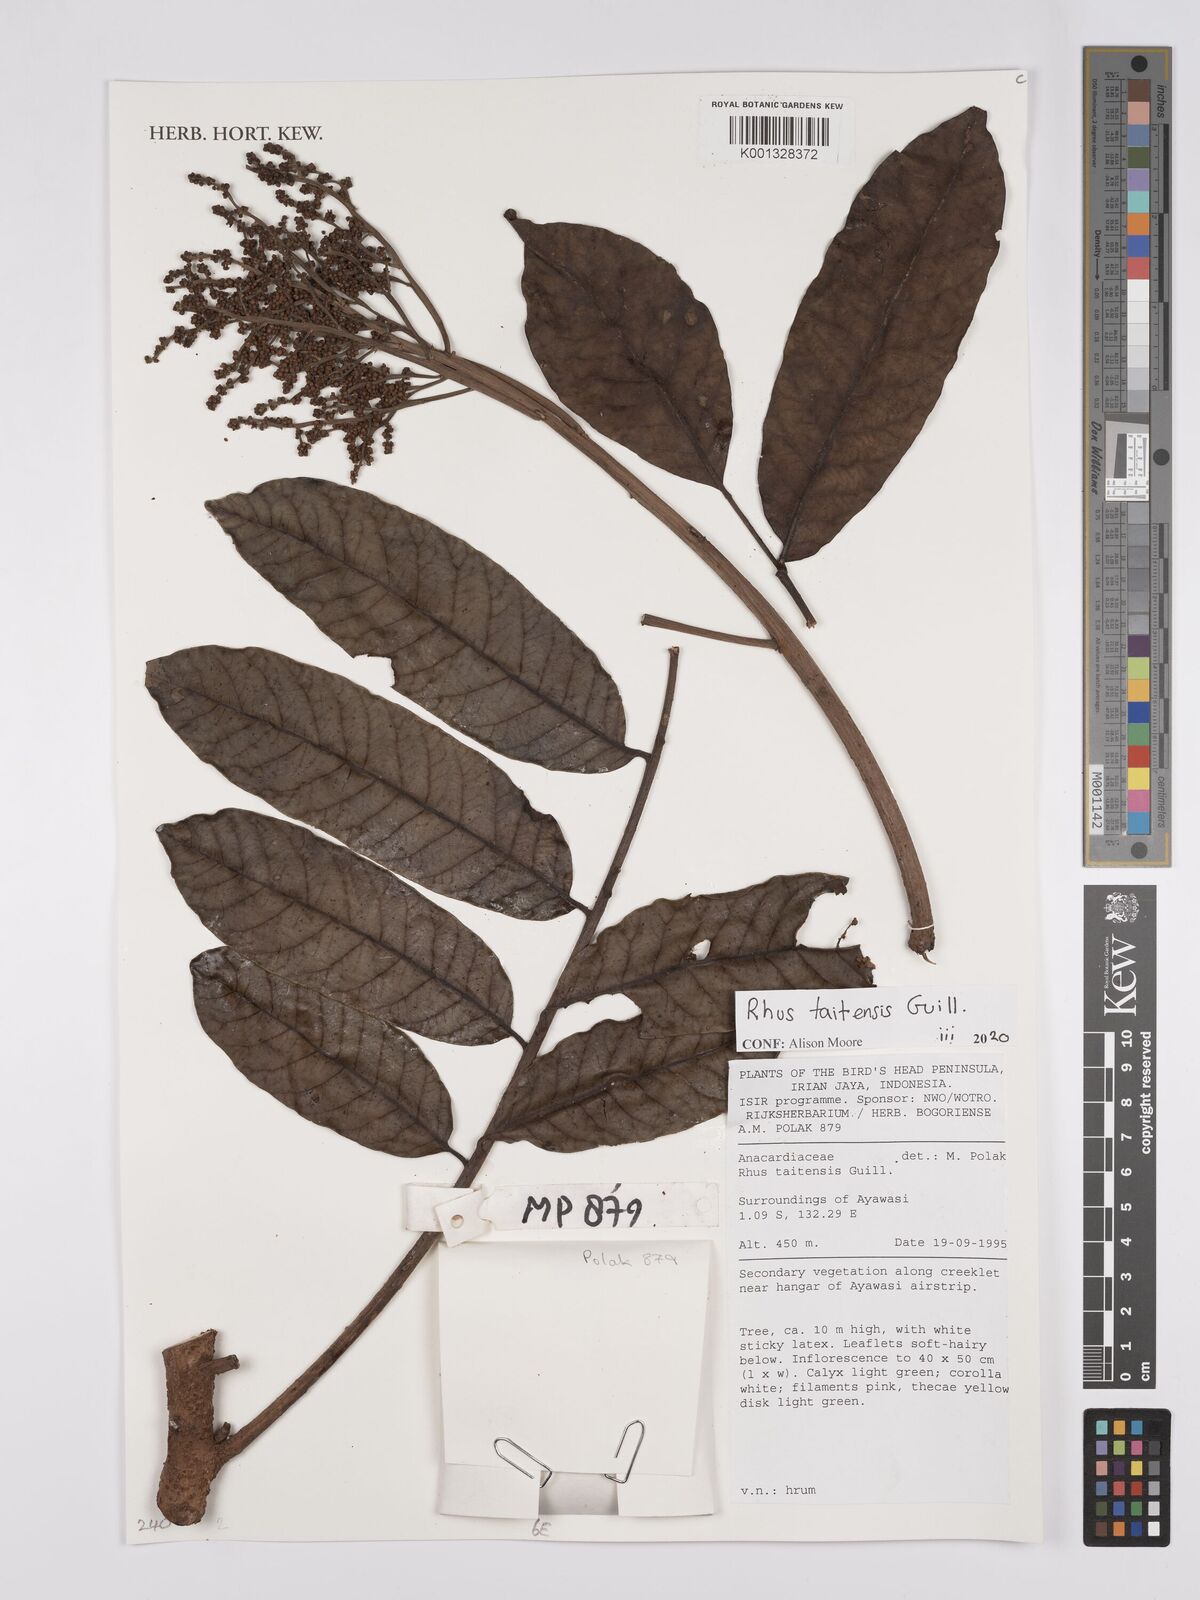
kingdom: Plantae
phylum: Tracheophyta
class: Magnoliopsida
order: Sapindales
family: Anacardiaceae
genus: Melanococca
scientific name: Melanococca tomentosa
